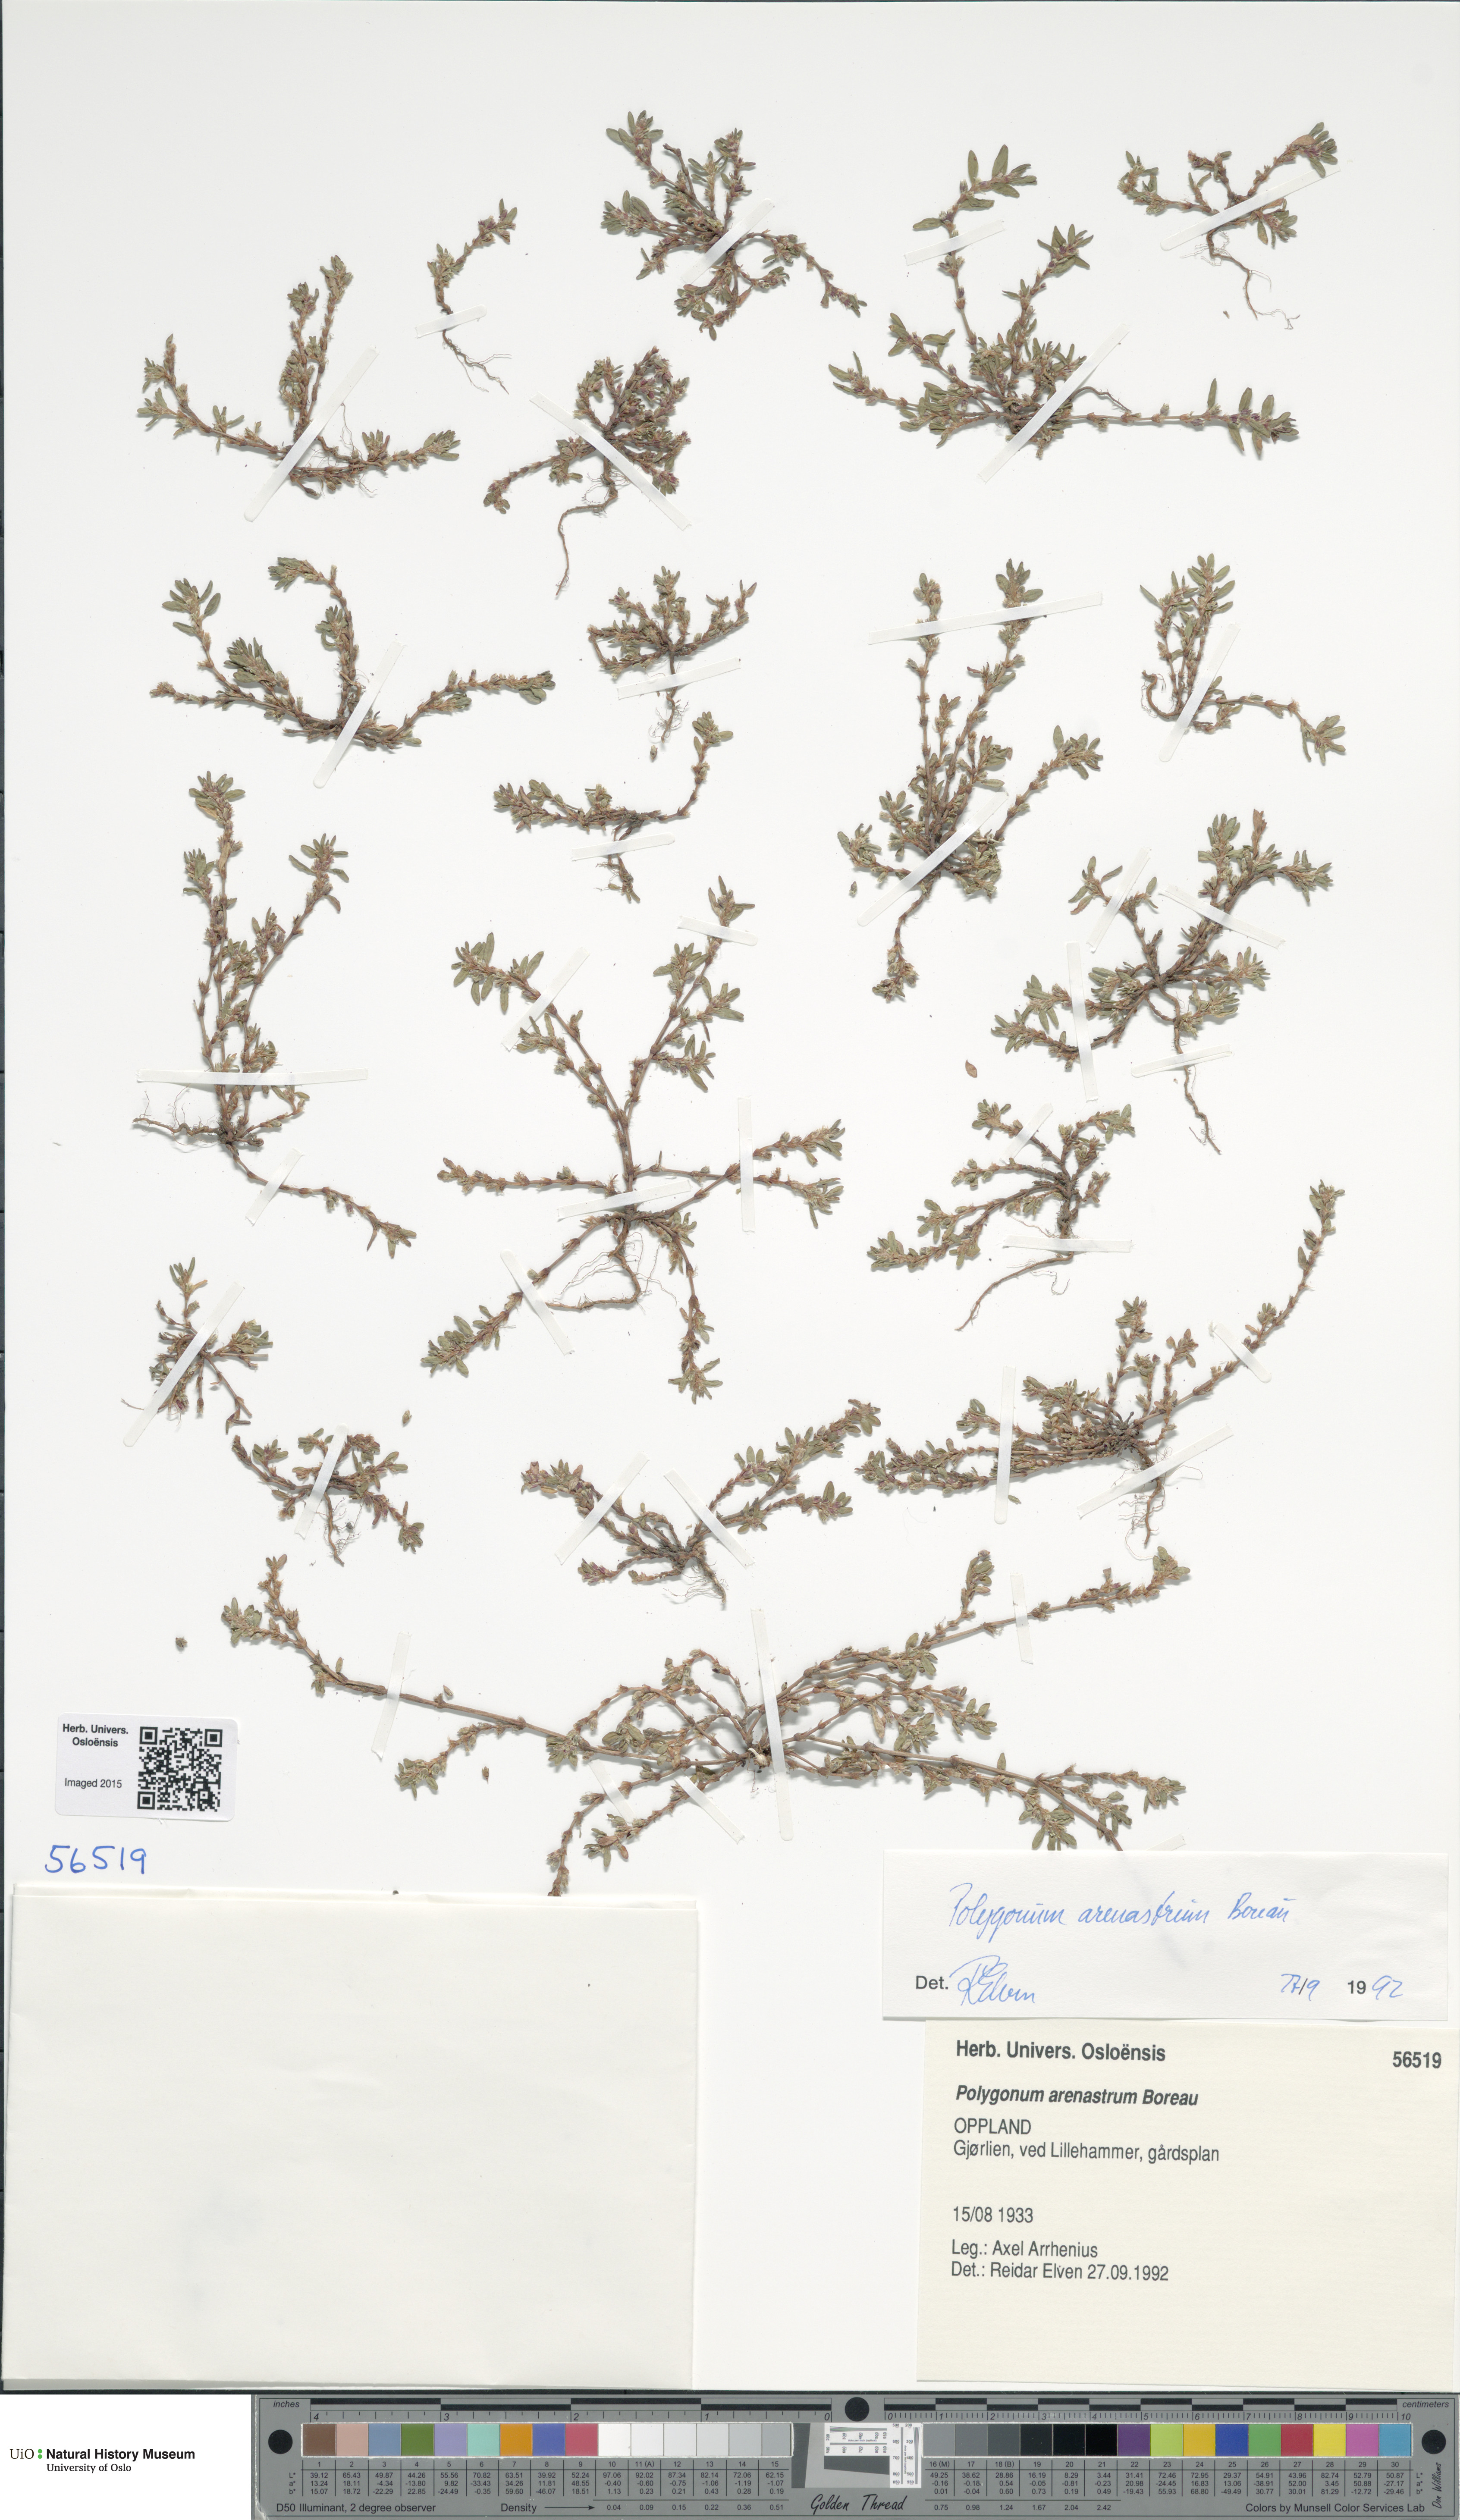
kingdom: Plantae
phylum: Tracheophyta
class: Magnoliopsida
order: Caryophyllales
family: Polygonaceae
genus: Polygonum
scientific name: Polygonum arenastrum
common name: Equal-leaved knotgrass
